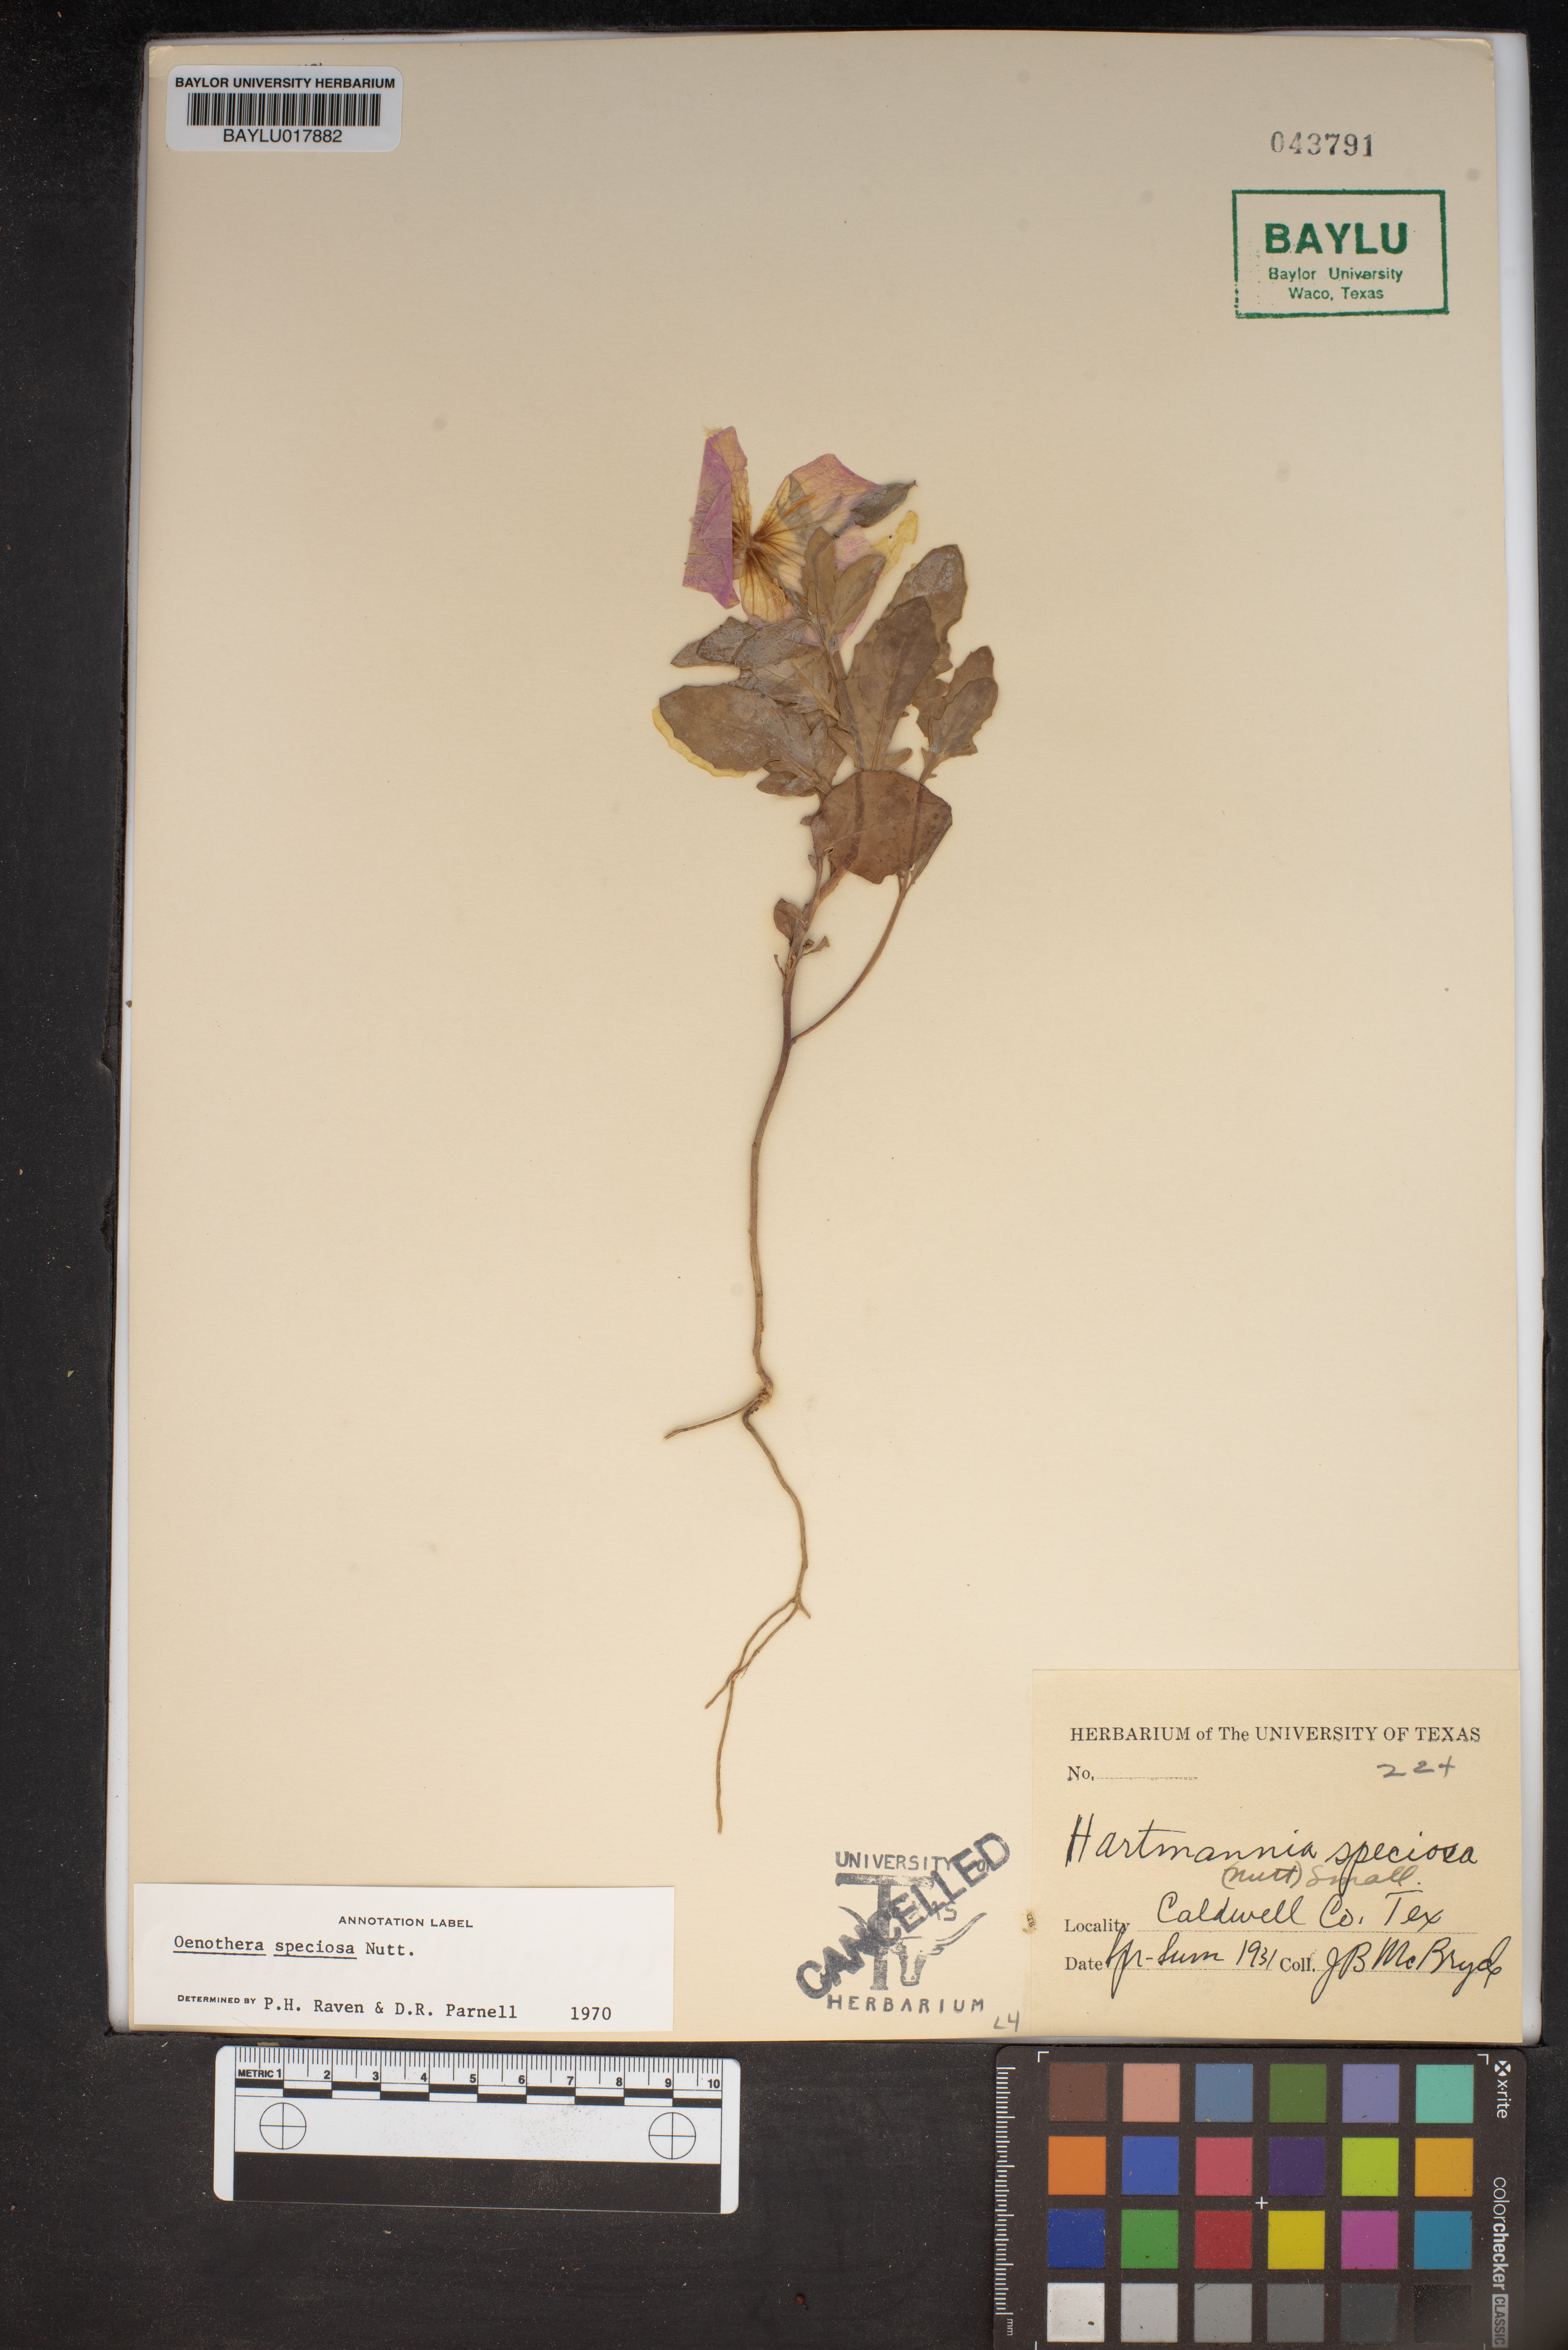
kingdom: Plantae
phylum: Tracheophyta
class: Magnoliopsida
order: Myrtales
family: Onagraceae
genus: Oenothera
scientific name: Oenothera speciosa
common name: White evening-primrose
